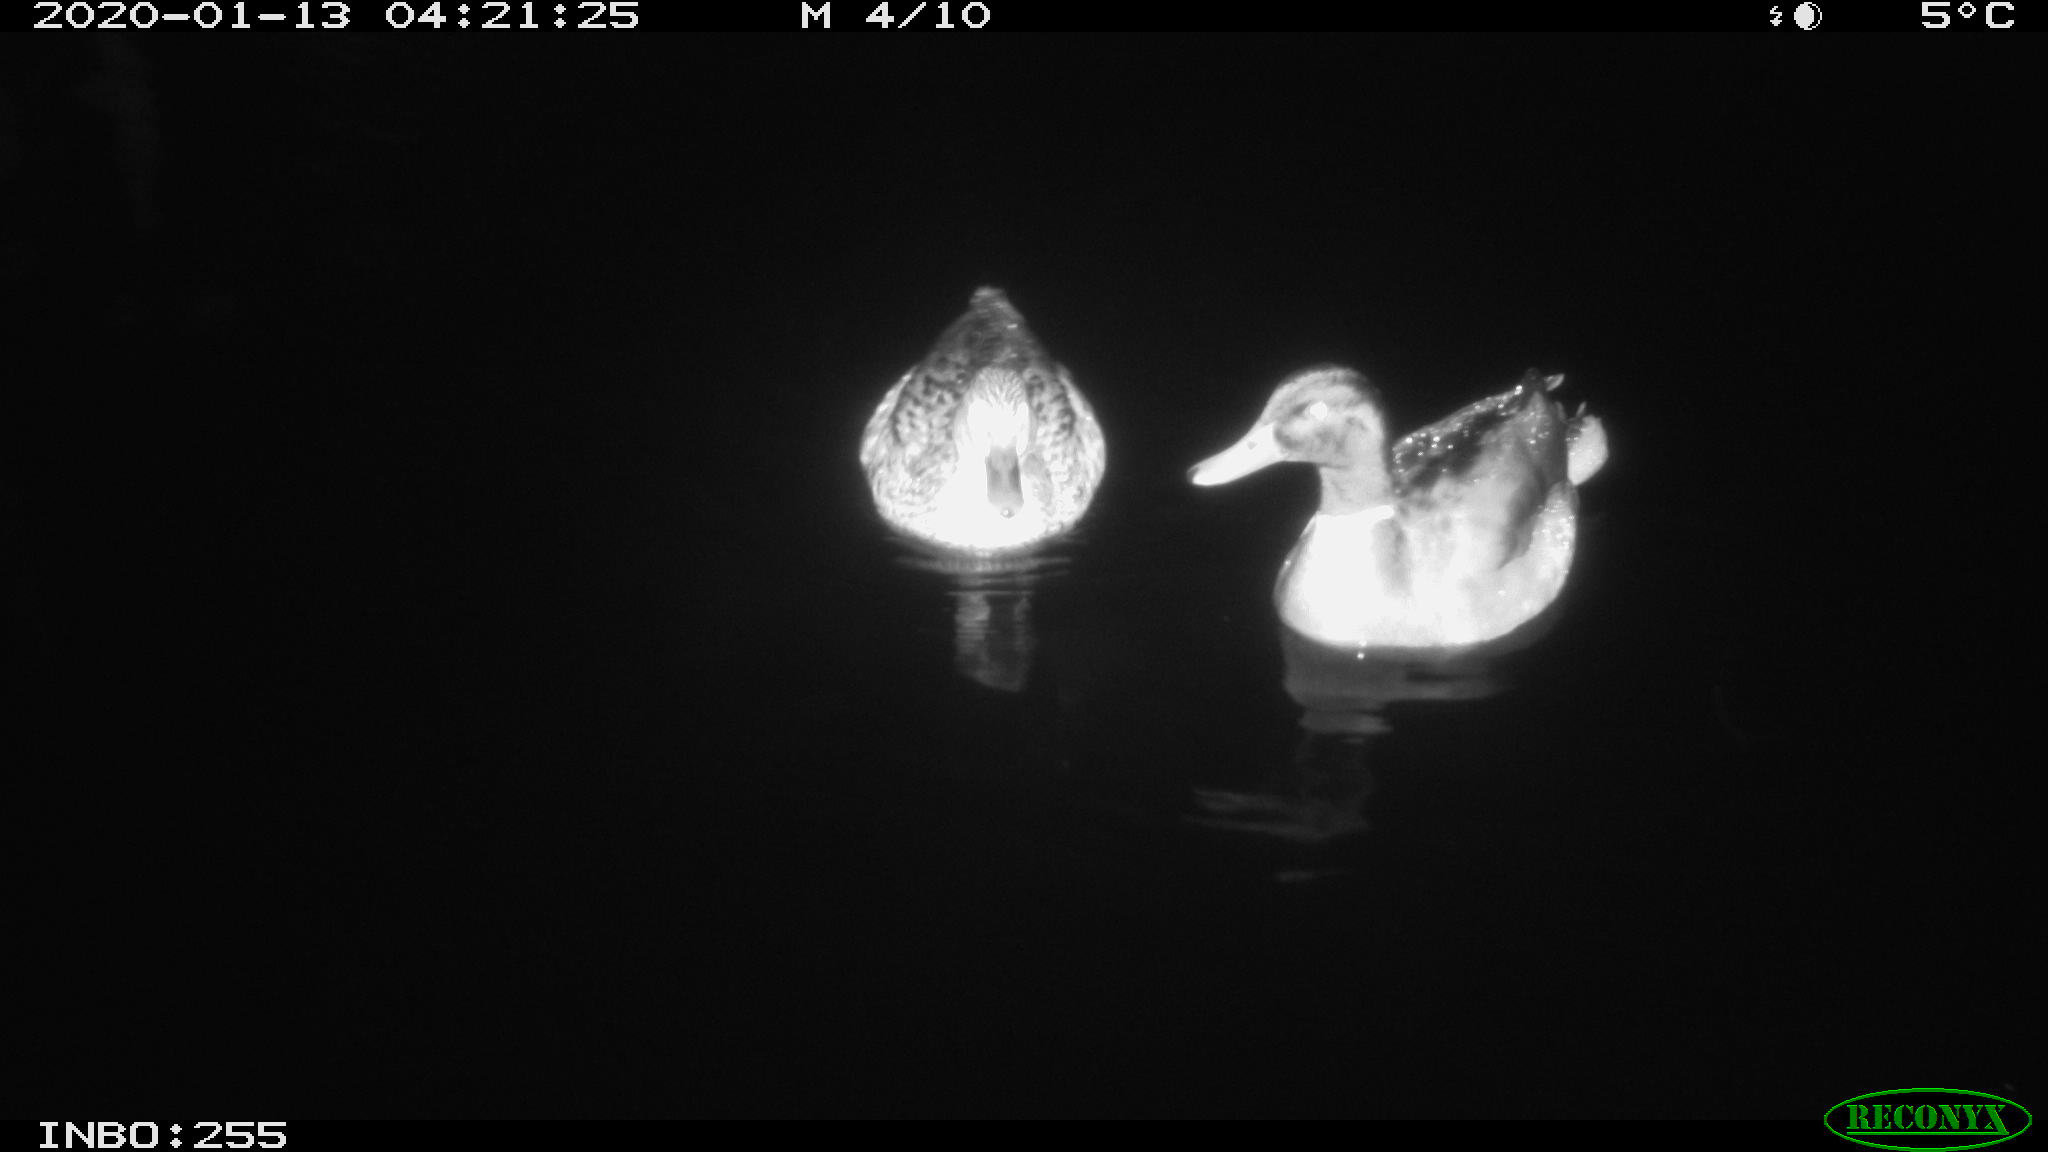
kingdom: Animalia
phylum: Chordata
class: Aves
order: Anseriformes
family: Anatidae
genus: Anas
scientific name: Anas platyrhynchos
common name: Mallard
